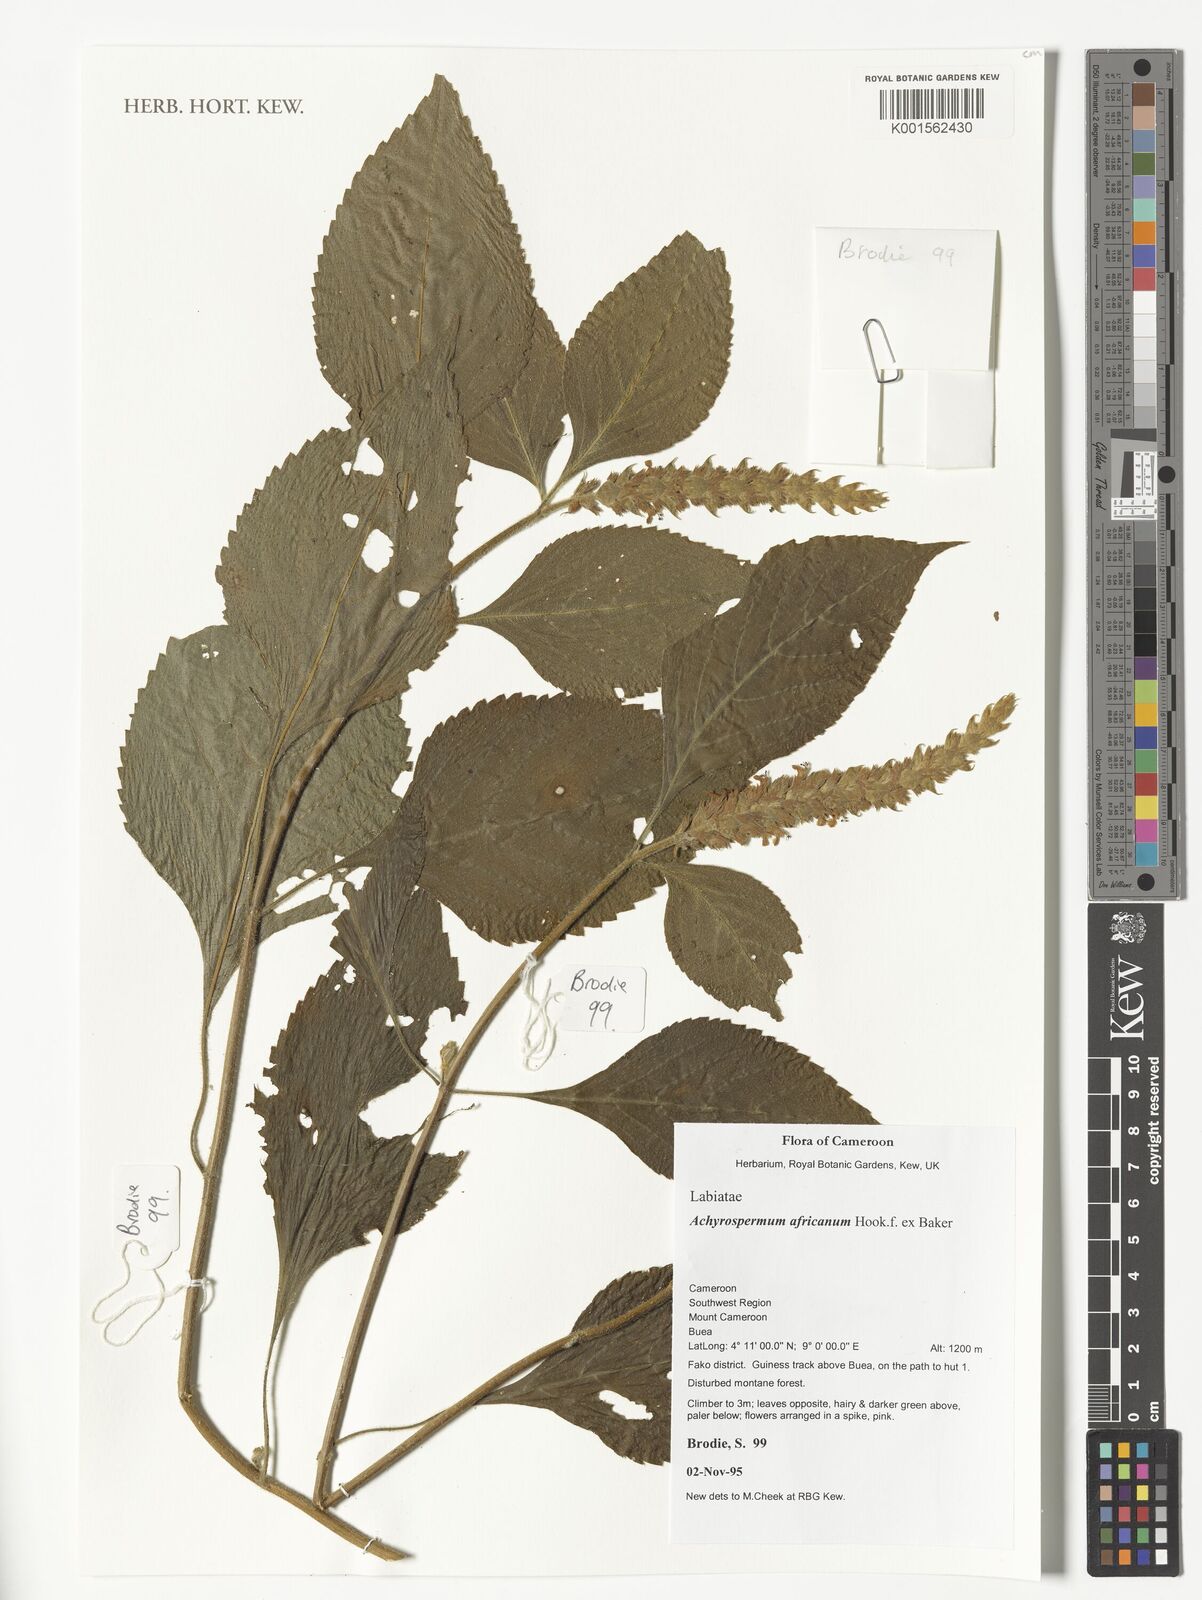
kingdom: Plantae
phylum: Tracheophyta
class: Magnoliopsida
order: Lamiales
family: Lamiaceae
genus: Achyrospermum
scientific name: Achyrospermum africanum
